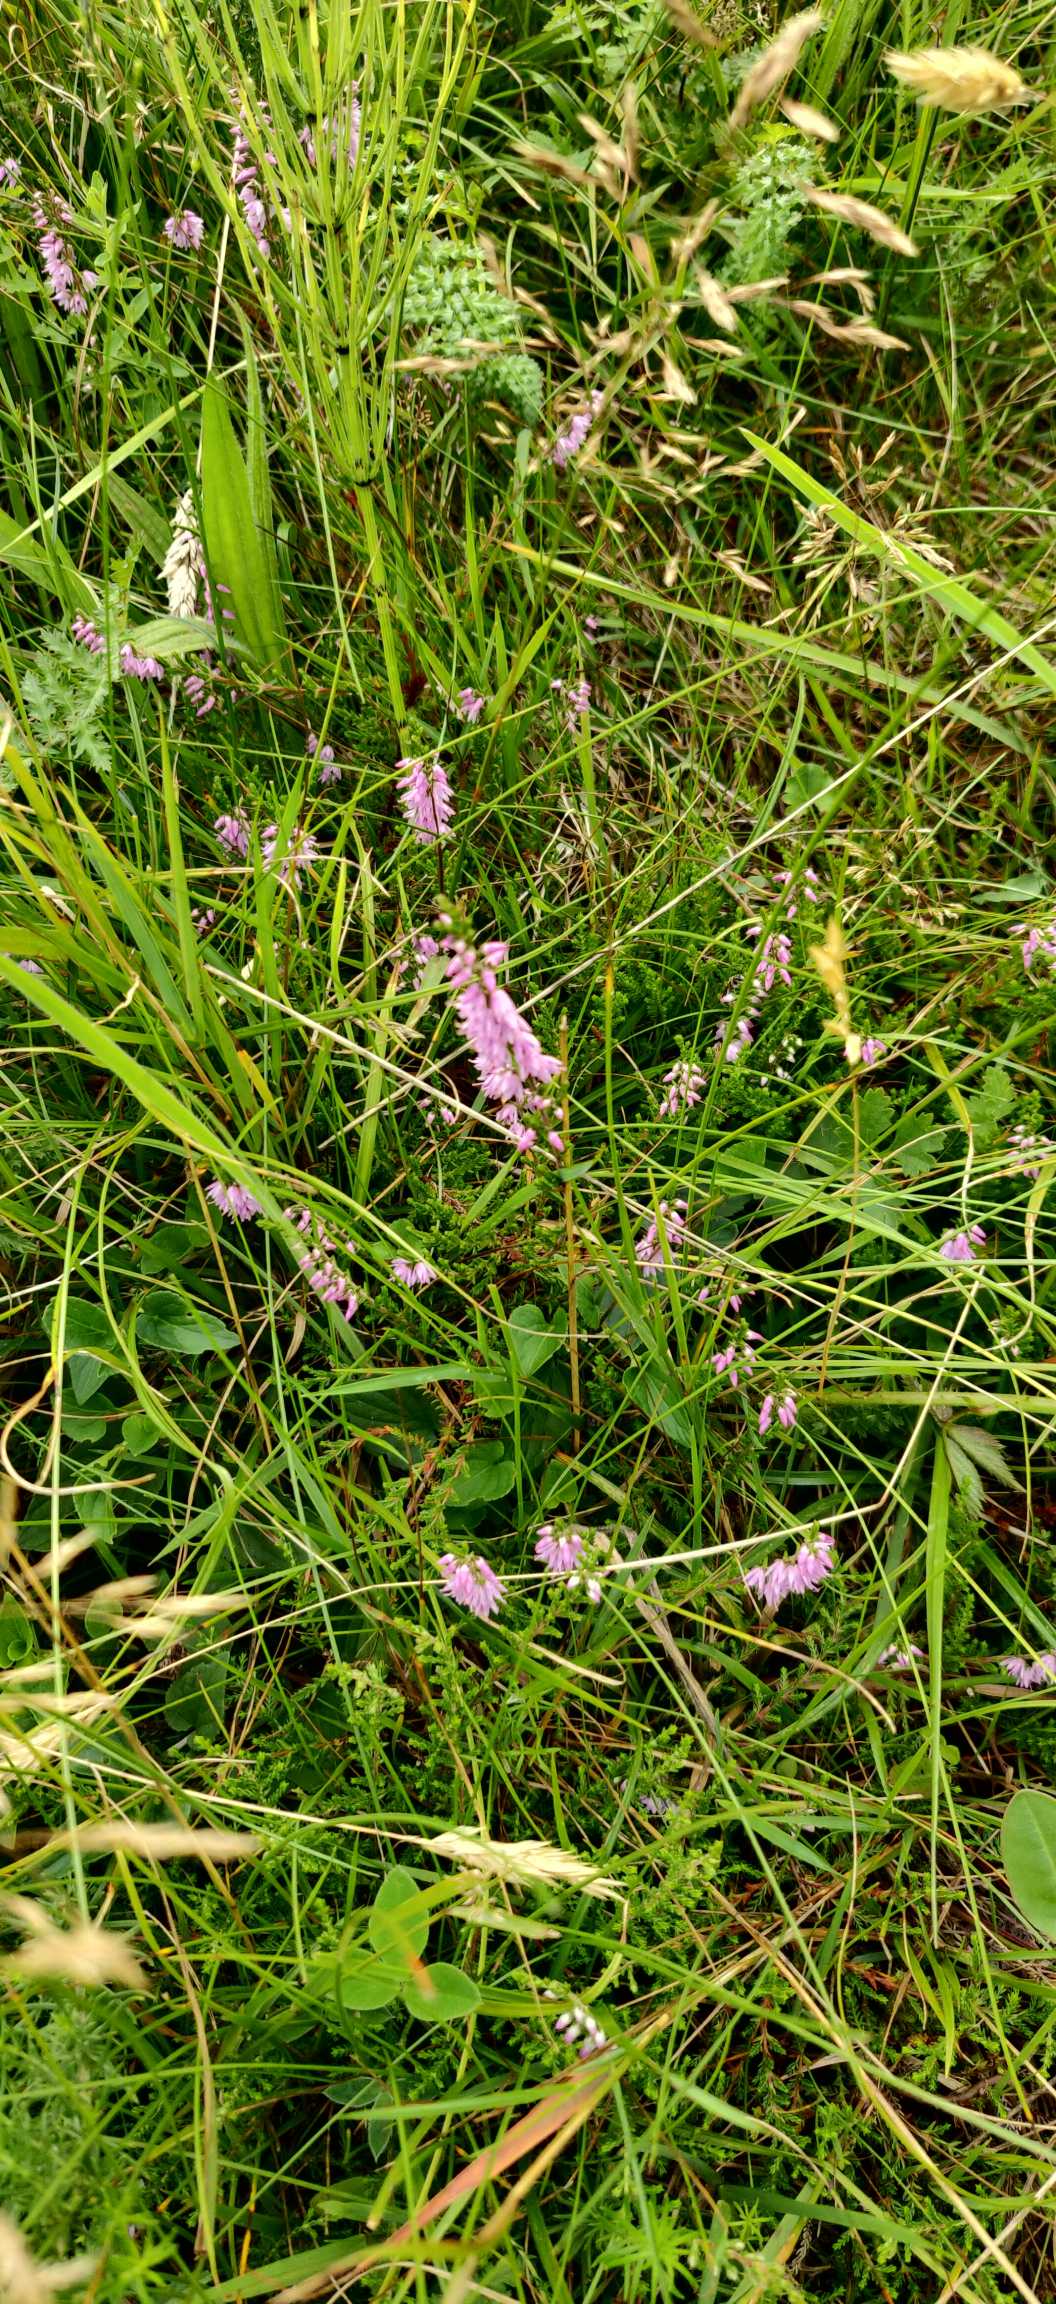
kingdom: Plantae
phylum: Tracheophyta
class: Magnoliopsida
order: Ericales
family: Ericaceae
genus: Calluna
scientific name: Calluna vulgaris
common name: Hedelyng
